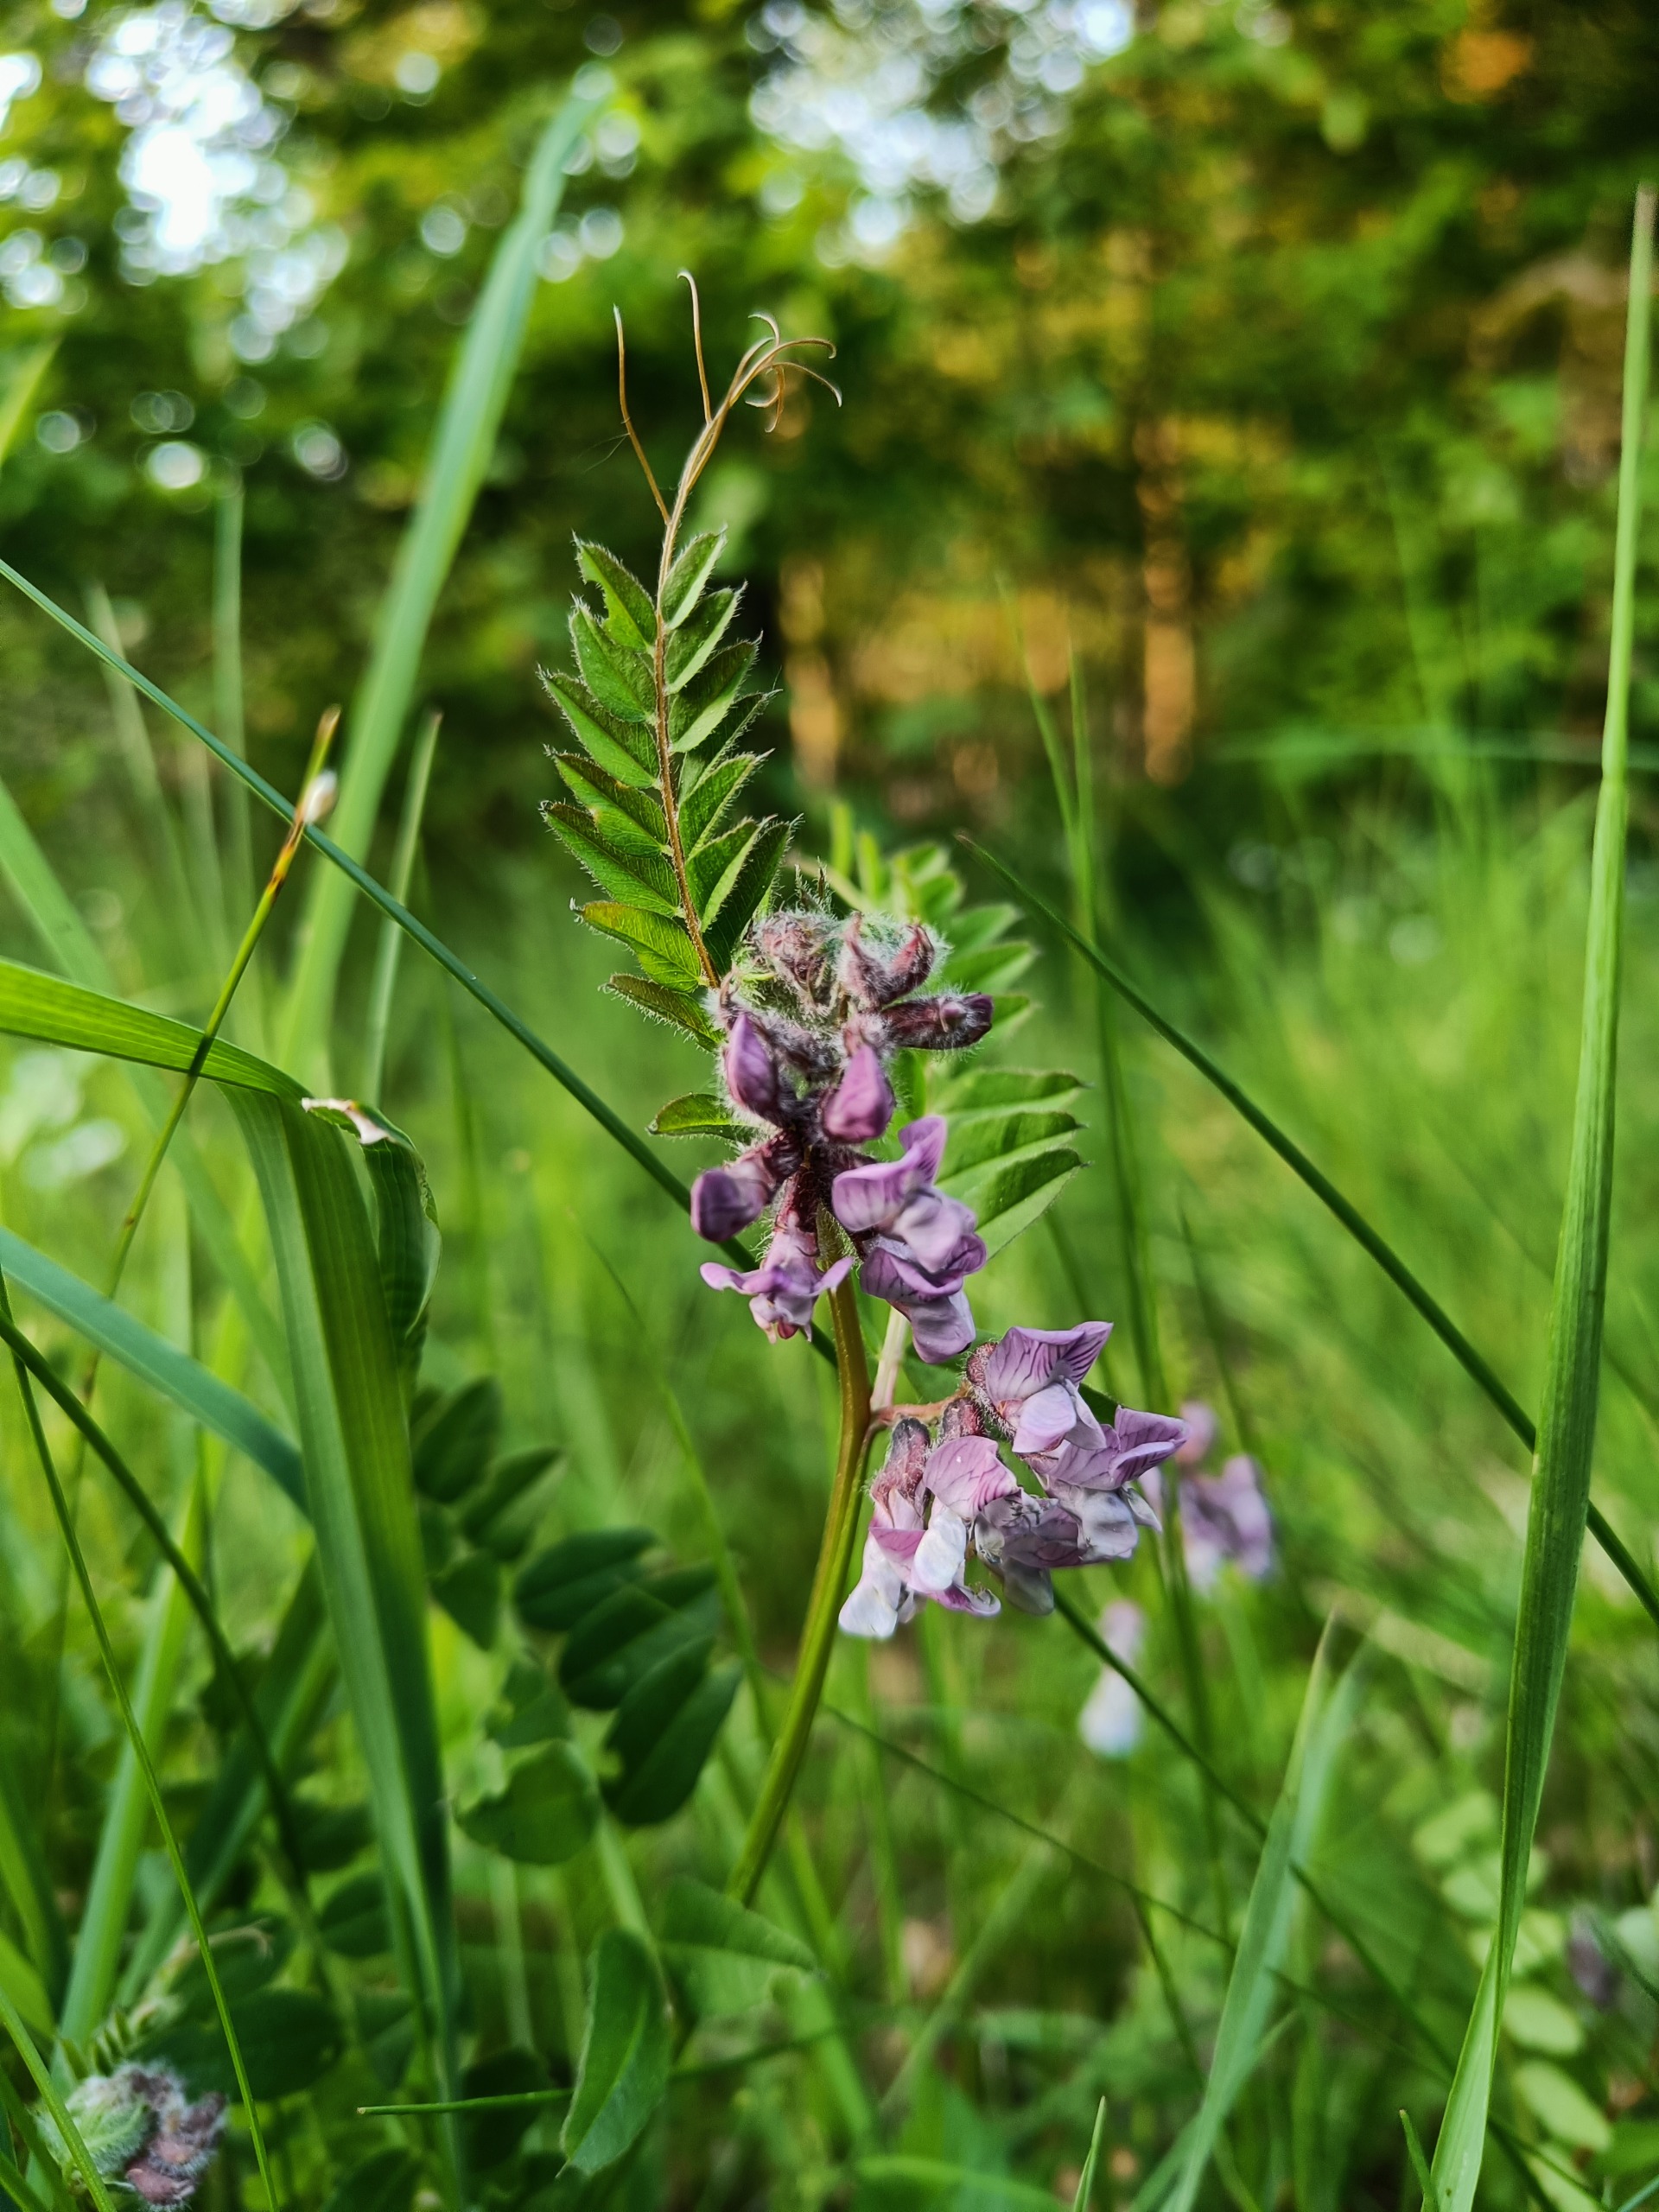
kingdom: Plantae
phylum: Tracheophyta
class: Magnoliopsida
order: Fabales
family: Fabaceae
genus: Vicia
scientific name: Vicia sepium
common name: Gærde-vikke
